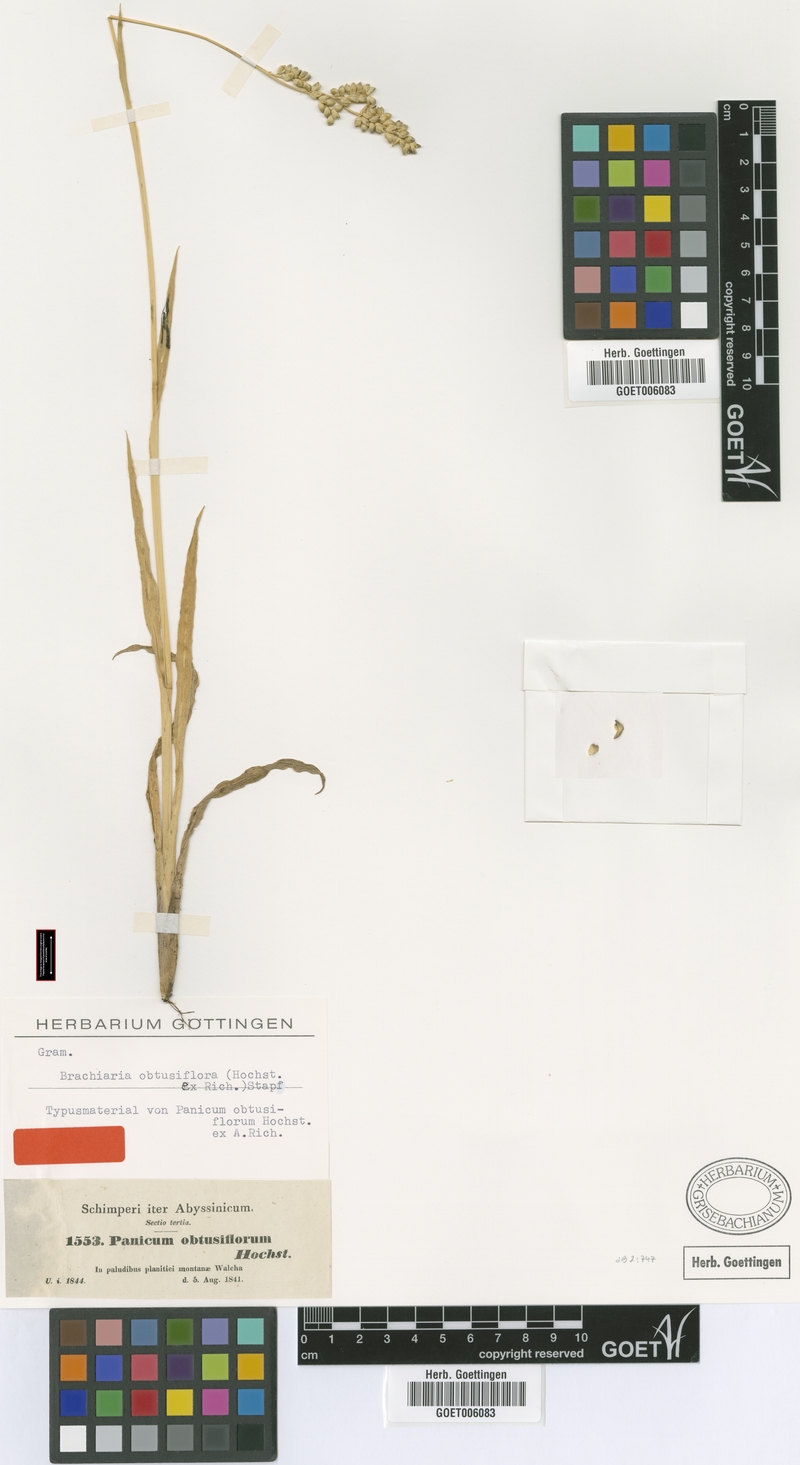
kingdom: Plantae
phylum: Tracheophyta
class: Liliopsida
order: Poales
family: Poaceae
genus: Echinochloa
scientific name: Echinochloa rotundiflora
